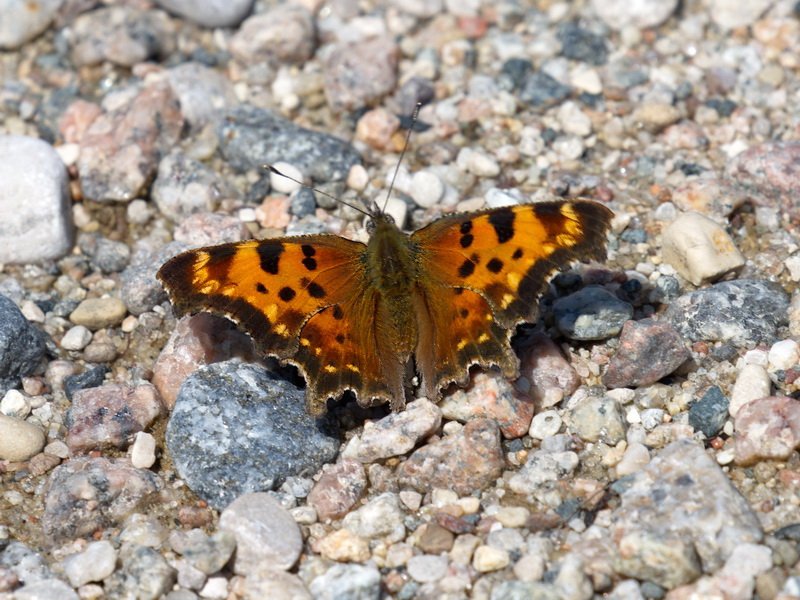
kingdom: Animalia
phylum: Arthropoda
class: Insecta
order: Lepidoptera
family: Nymphalidae
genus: Polygonia
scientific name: Polygonia faunus
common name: Green Comma
